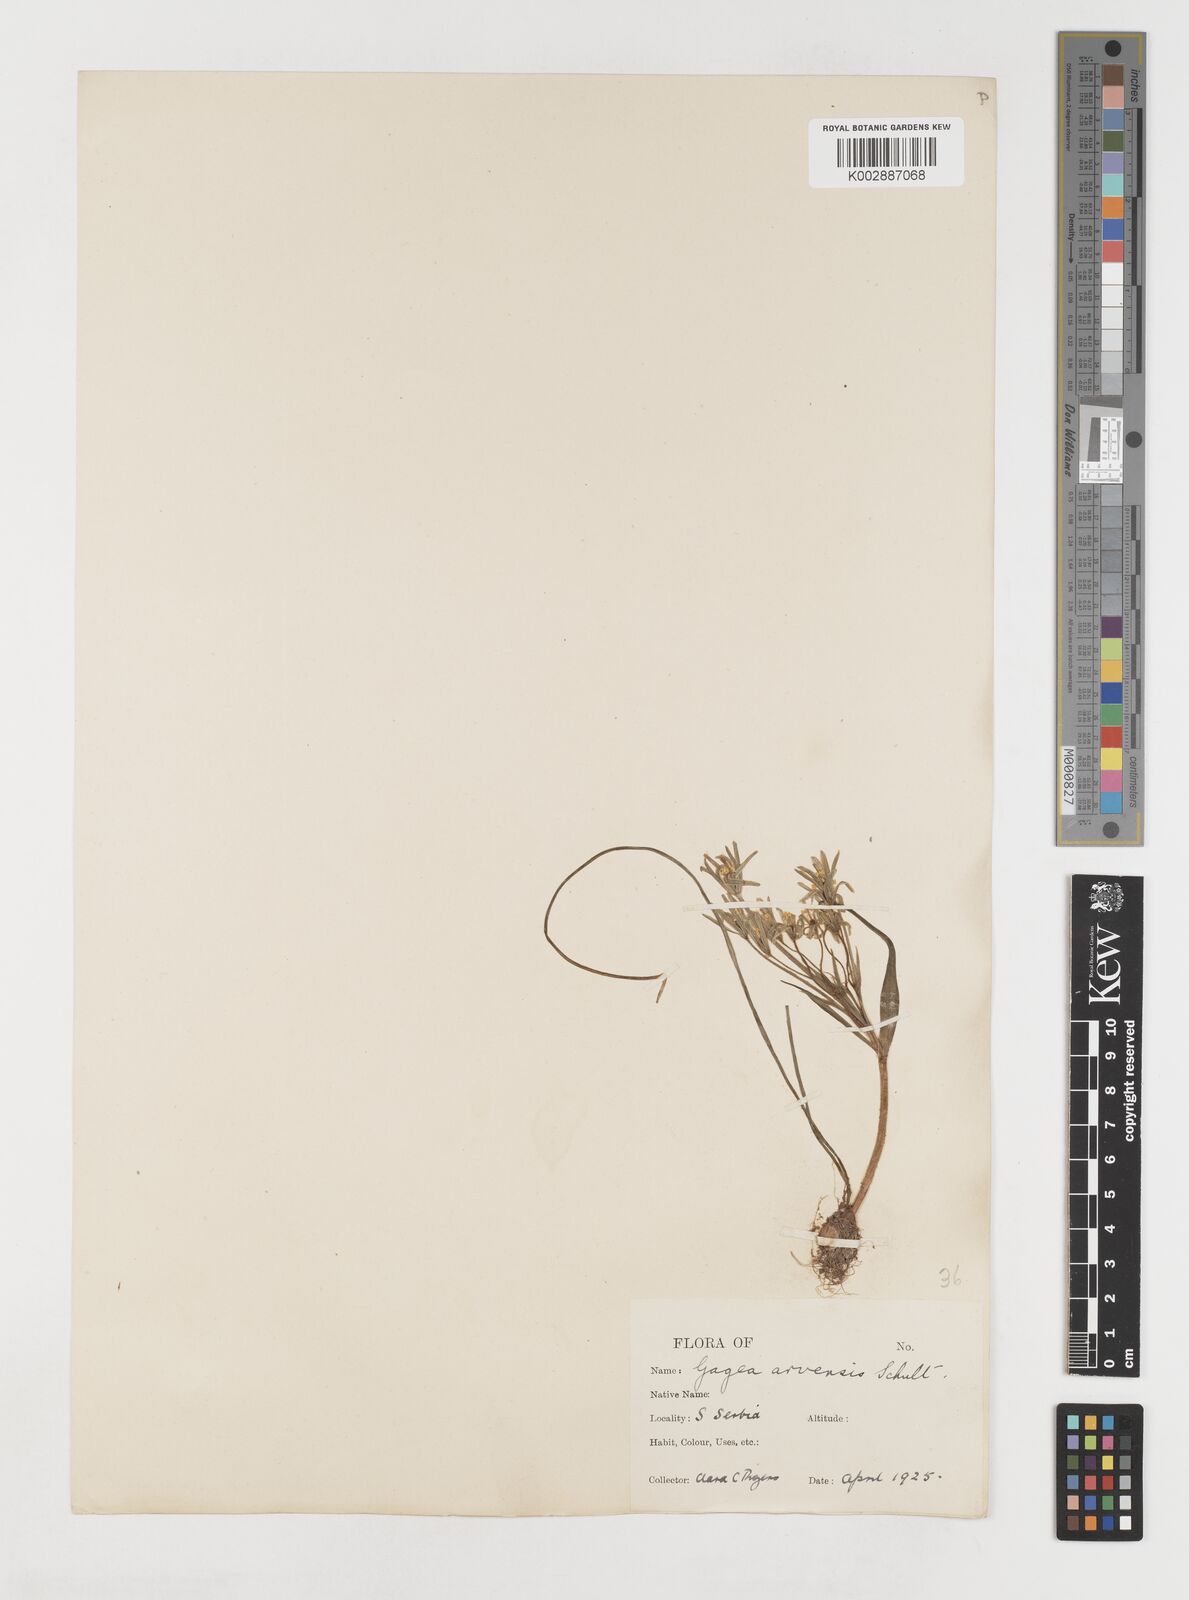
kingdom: Plantae
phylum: Tracheophyta
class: Liliopsida
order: Liliales
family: Liliaceae
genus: Gagea
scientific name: Gagea minima
